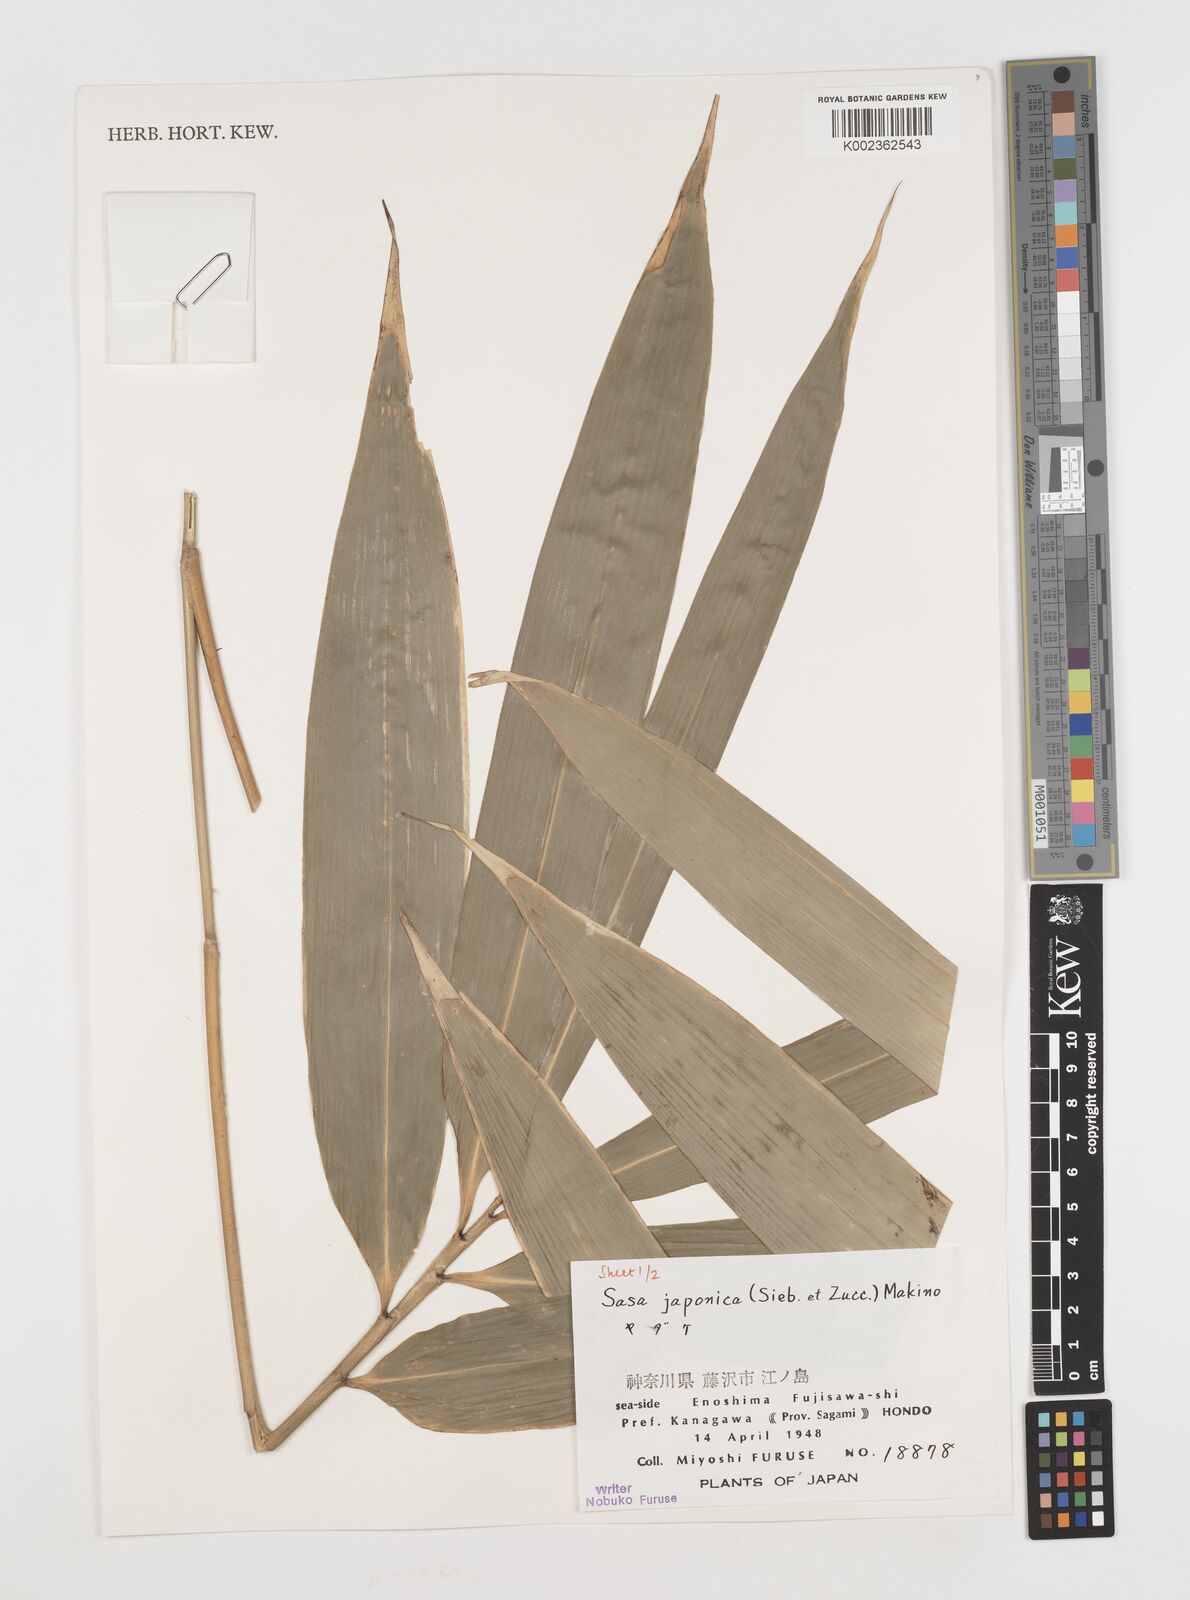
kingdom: Plantae
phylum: Tracheophyta
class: Liliopsida
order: Poales
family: Poaceae
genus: Pseudosasa
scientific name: Pseudosasa japonica
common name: Arrow bamboo
